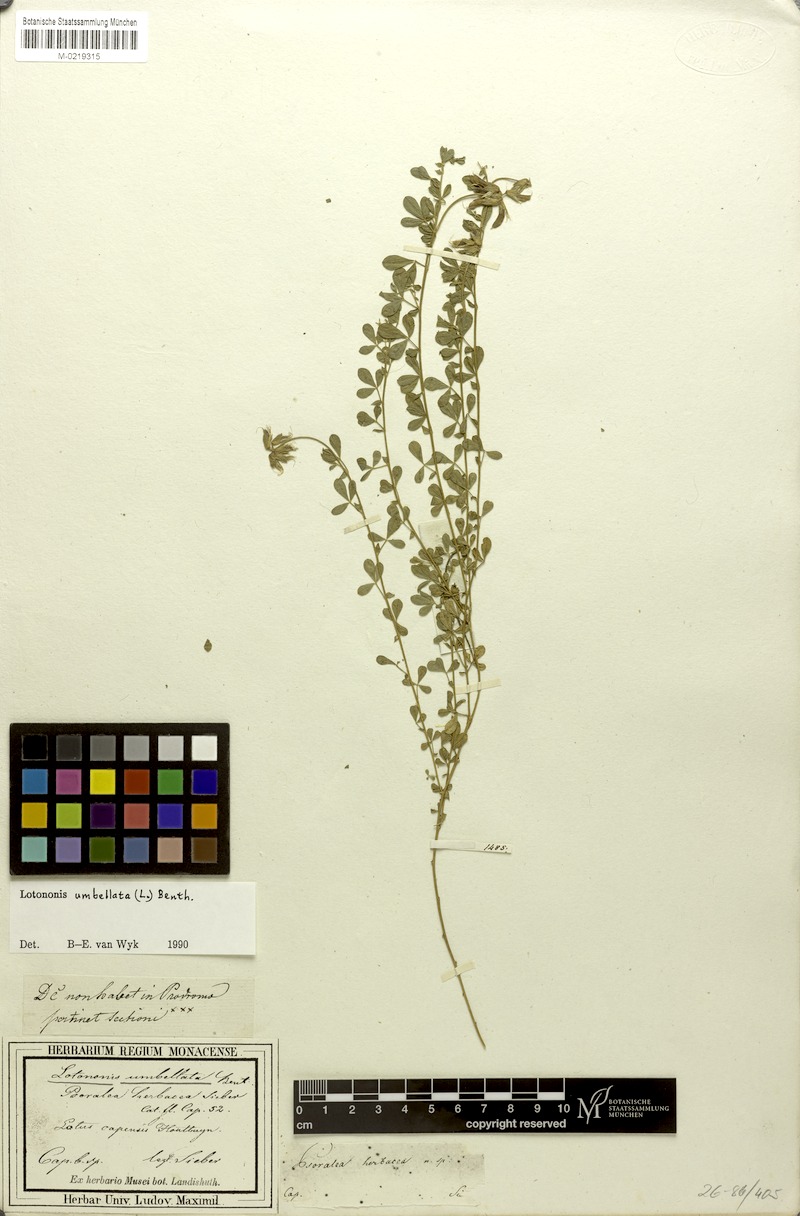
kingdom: Plantae
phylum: Tracheophyta
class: Magnoliopsida
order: Fabales
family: Fabaceae
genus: Lotononis
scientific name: Lotononis umbellata
